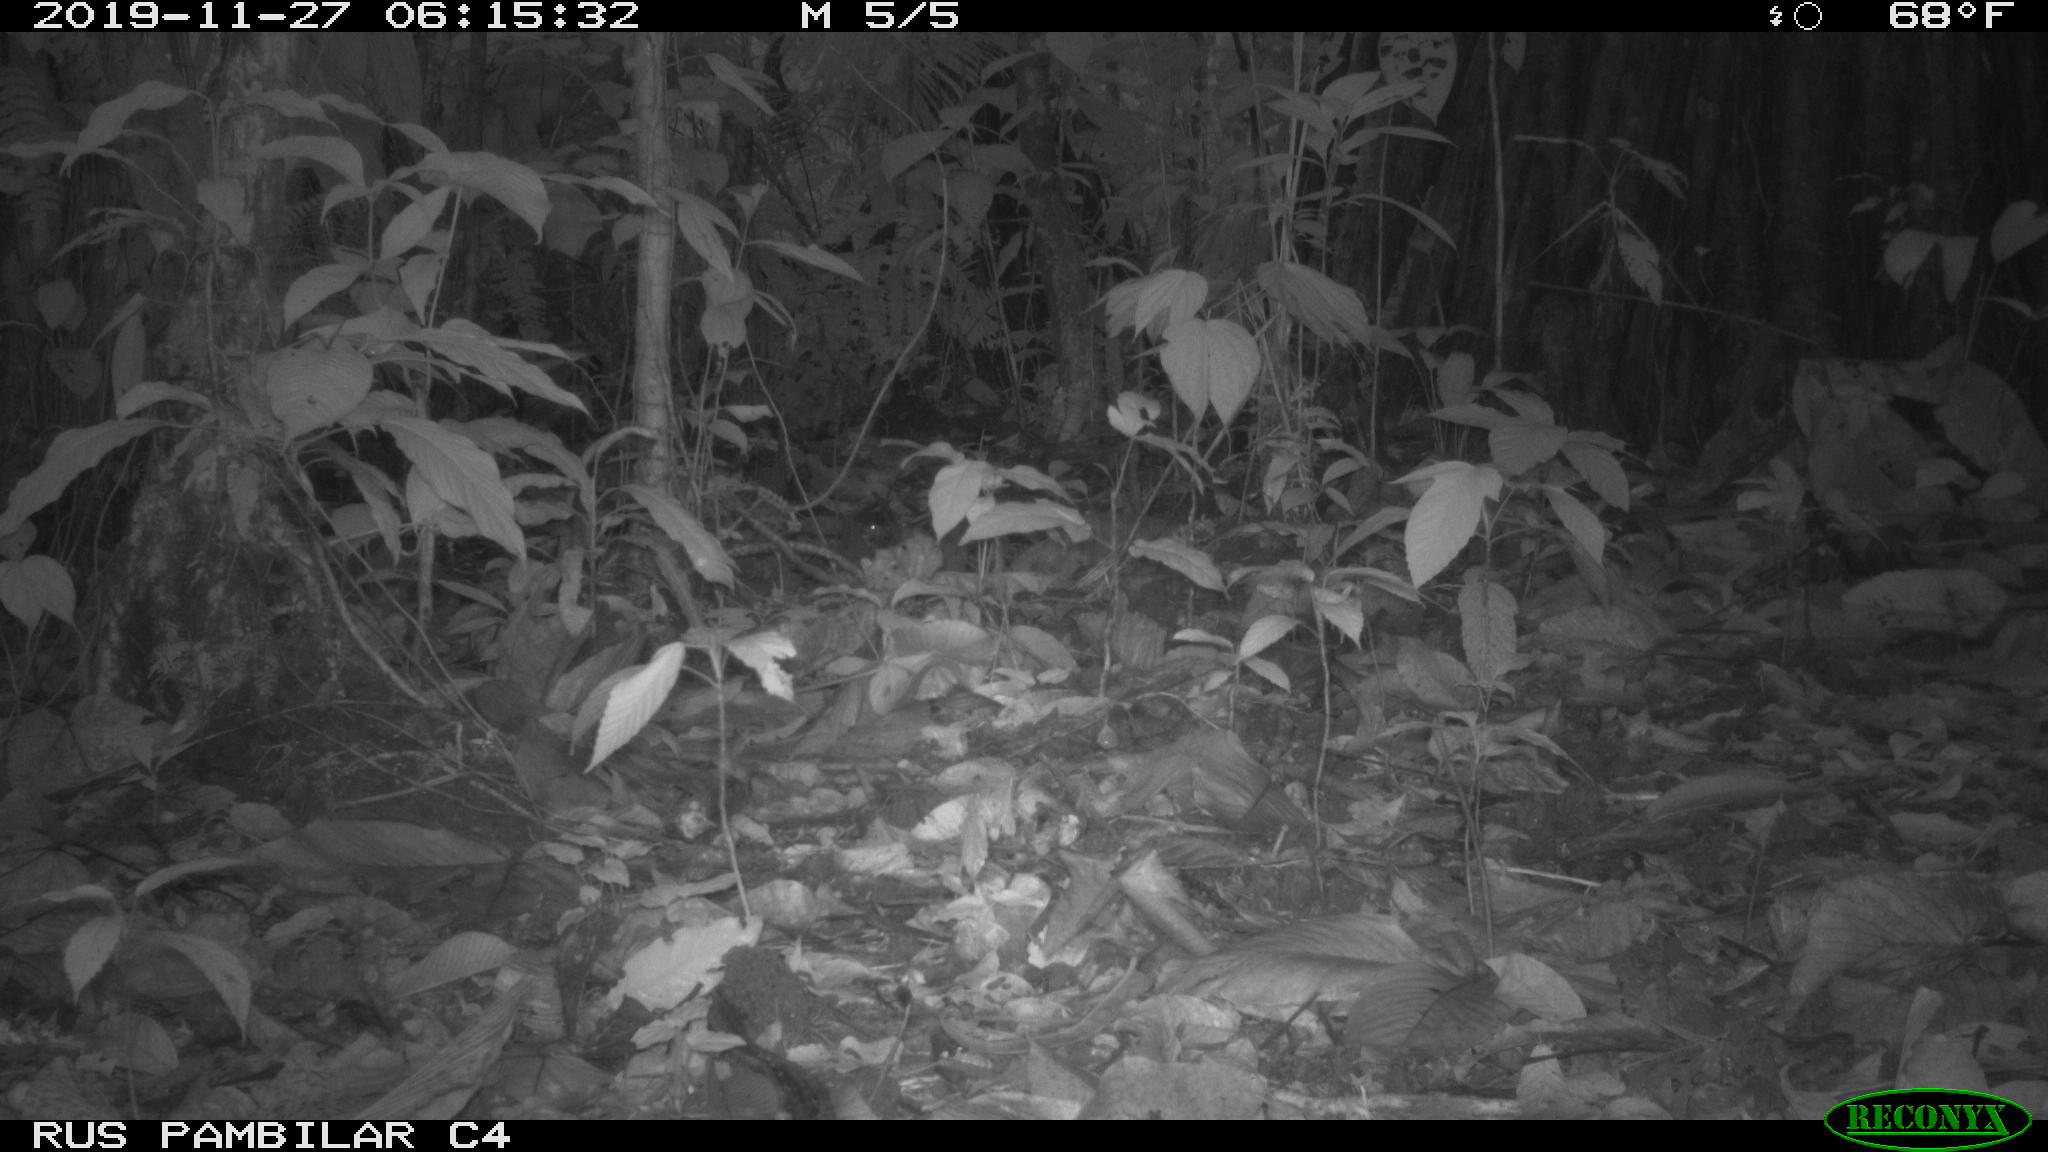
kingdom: Animalia
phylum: Chordata
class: Mammalia
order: Rodentia
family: Dasyproctidae
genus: Dasyprocta
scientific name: Dasyprocta punctata
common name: Central american agouti
